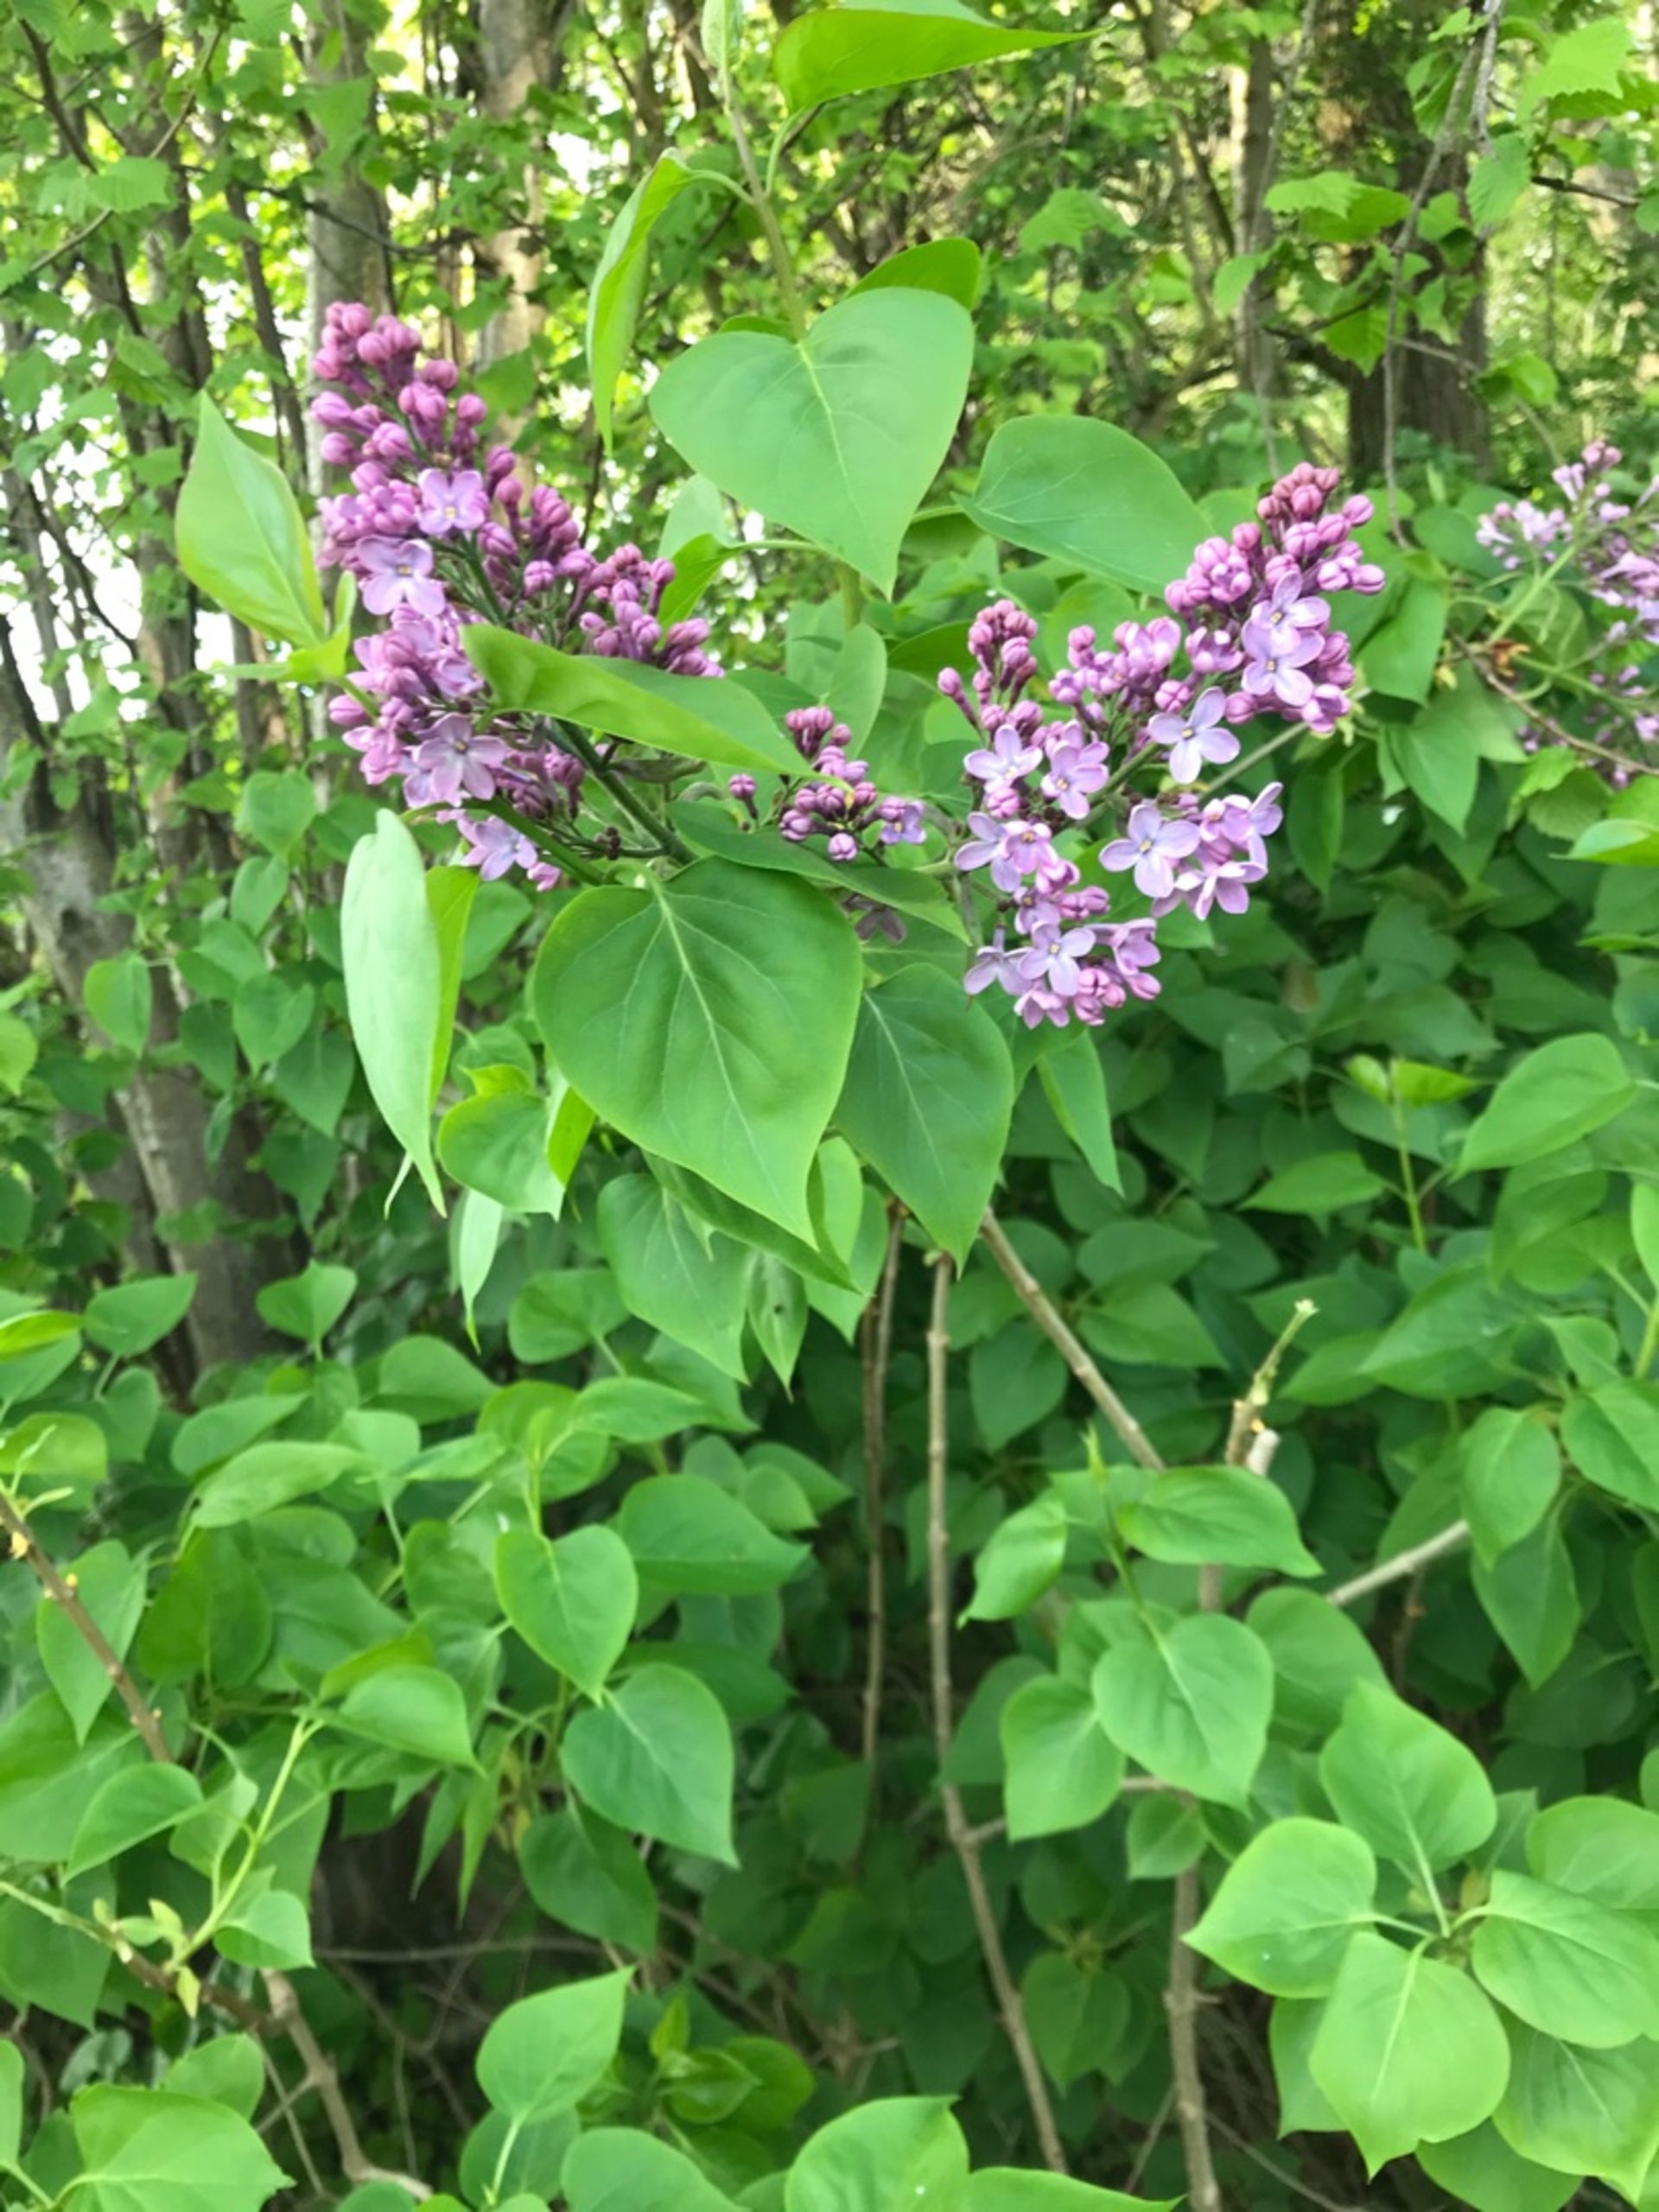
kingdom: Plantae
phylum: Tracheophyta
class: Magnoliopsida
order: Lamiales
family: Oleaceae
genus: Syringa
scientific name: Syringa vulgaris
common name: Syren
